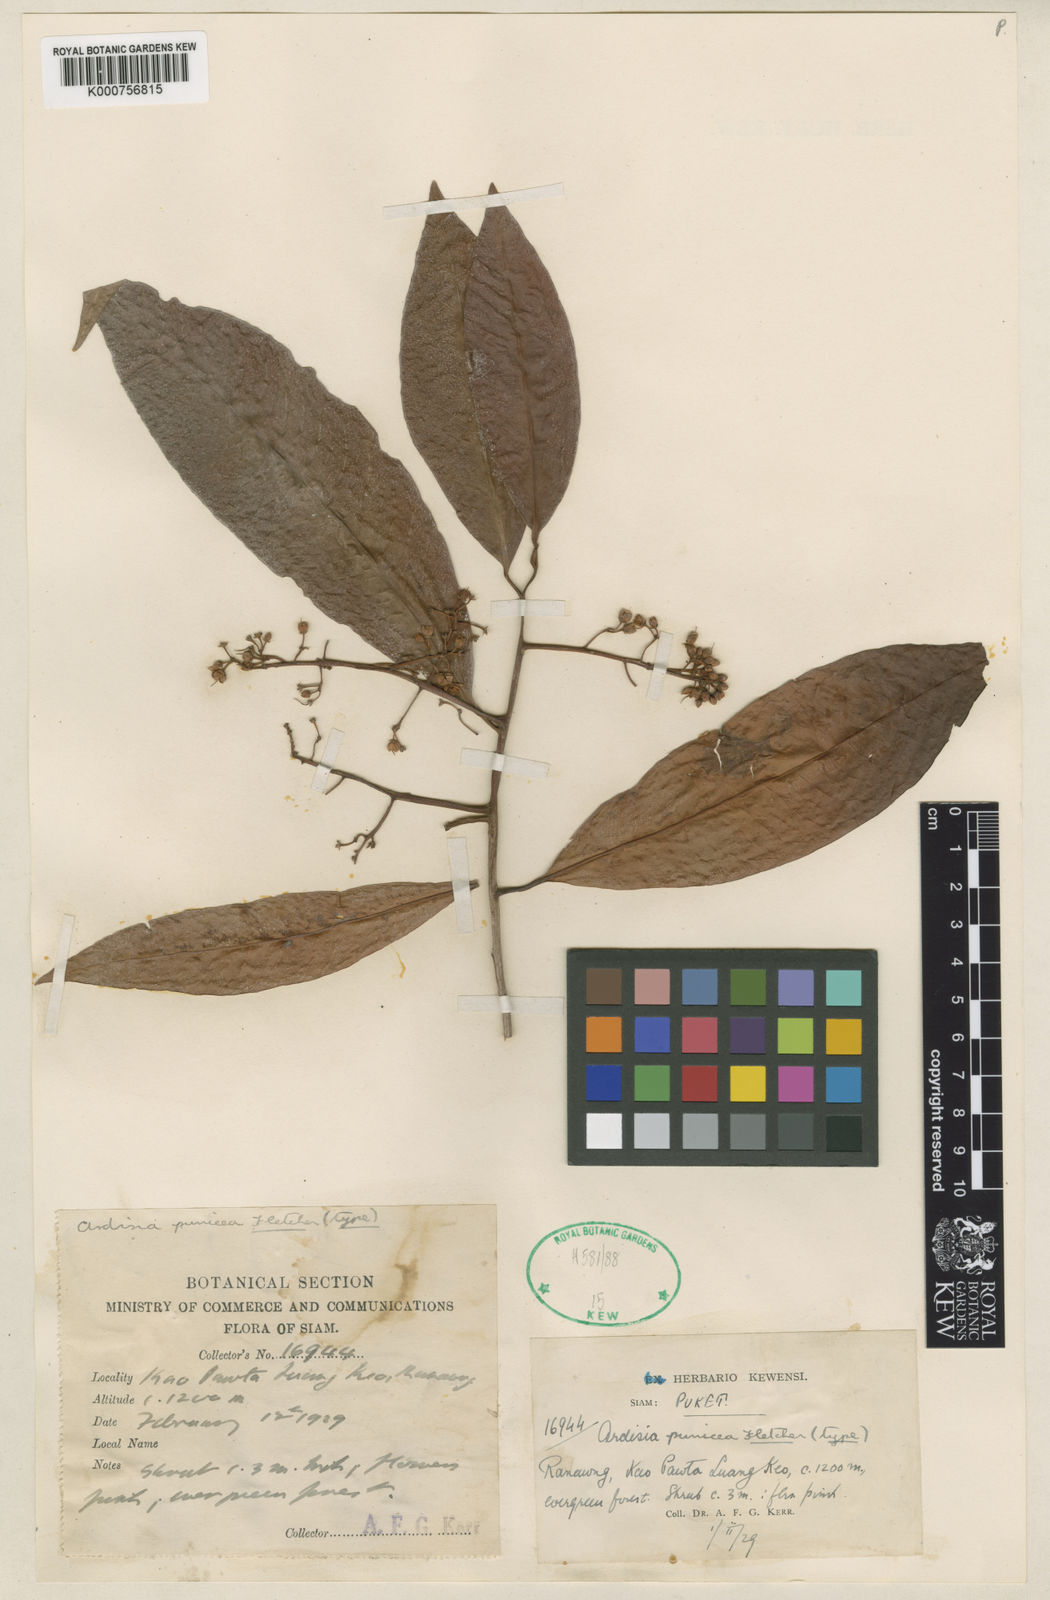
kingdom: Plantae
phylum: Tracheophyta
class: Magnoliopsida
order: Ericales
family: Primulaceae
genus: Ardisia
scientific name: Ardisia punicea
